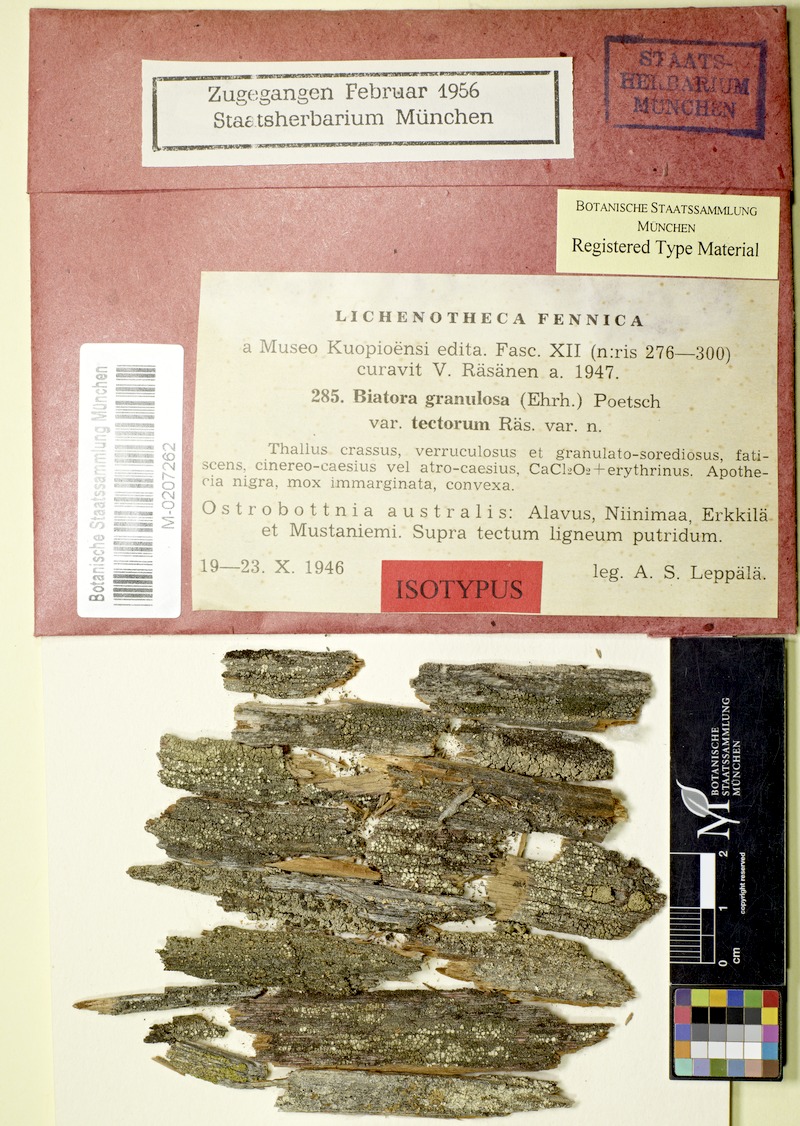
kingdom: Fungi
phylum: Ascomycota
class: Lecanoromycetes
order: Baeomycetales
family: Trapeliaceae
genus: Trapeliopsis
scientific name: Trapeliopsis granulosa
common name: Granular mottled-disk lichen
